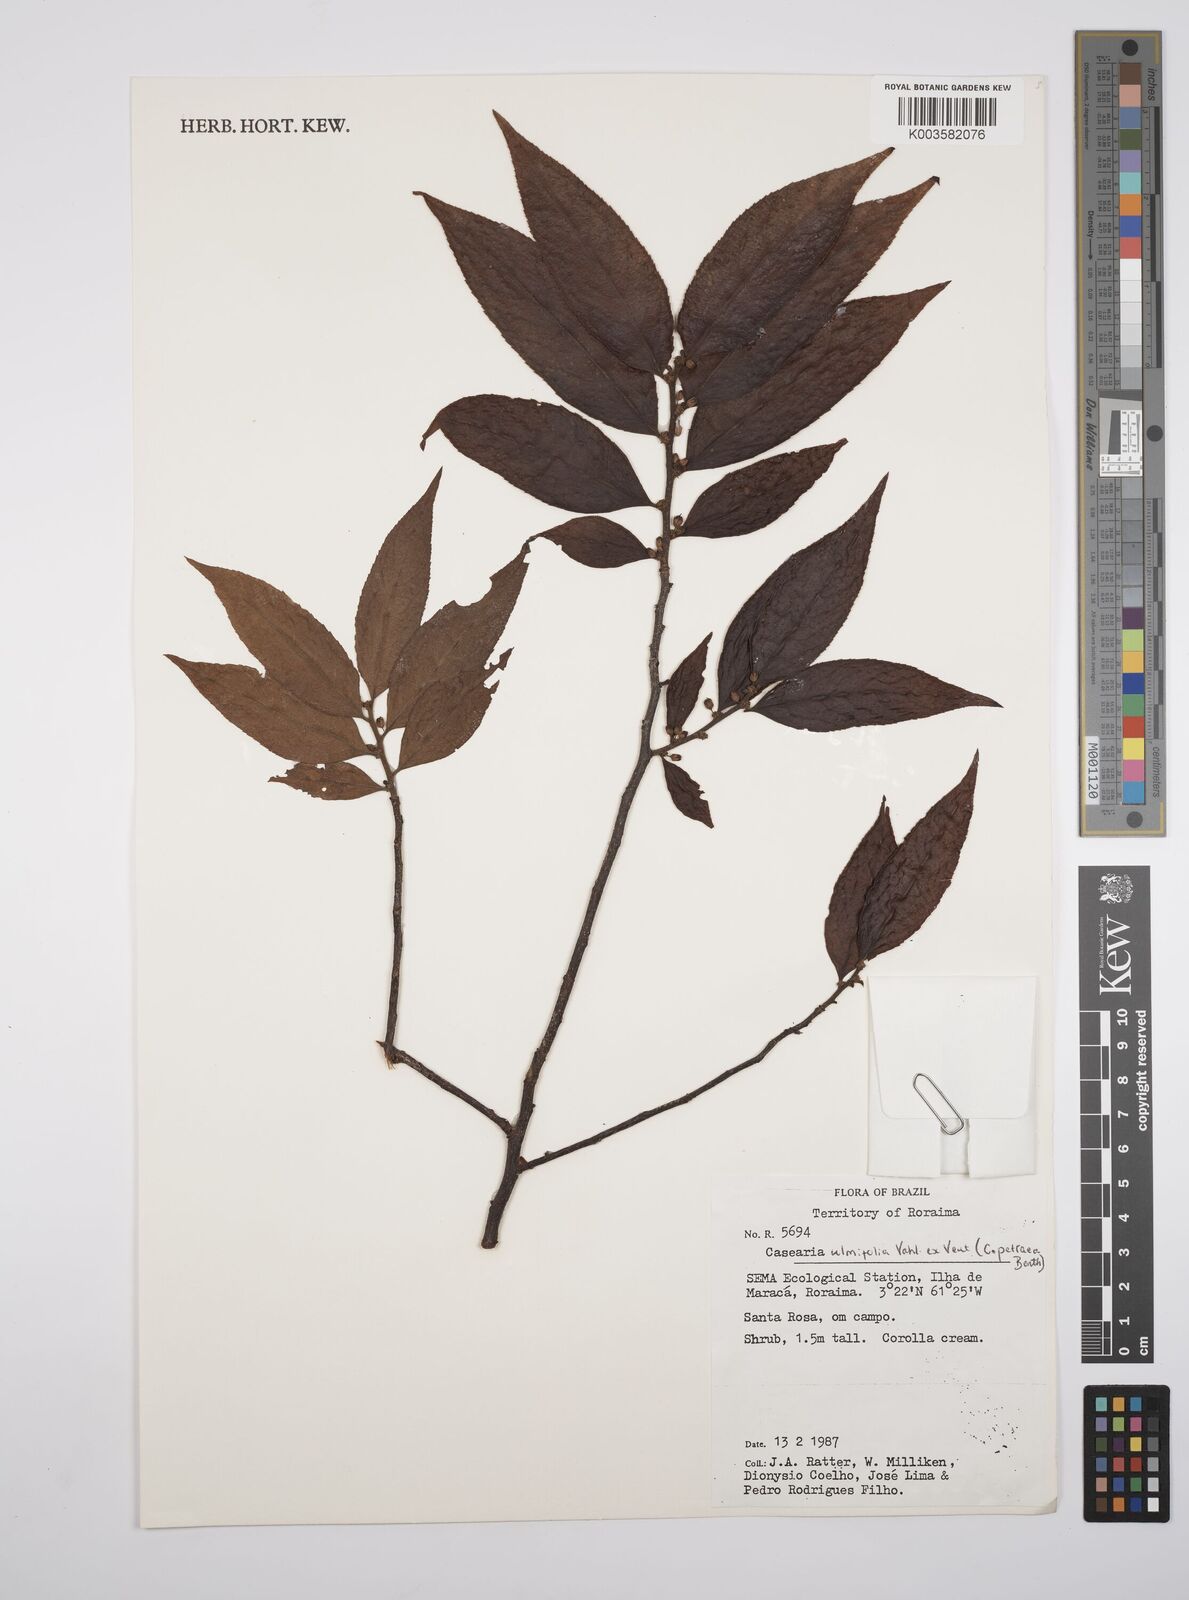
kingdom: Plantae
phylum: Tracheophyta
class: Magnoliopsida
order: Malpighiales
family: Salicaceae
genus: Casearia
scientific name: Casearia ulmifolia
